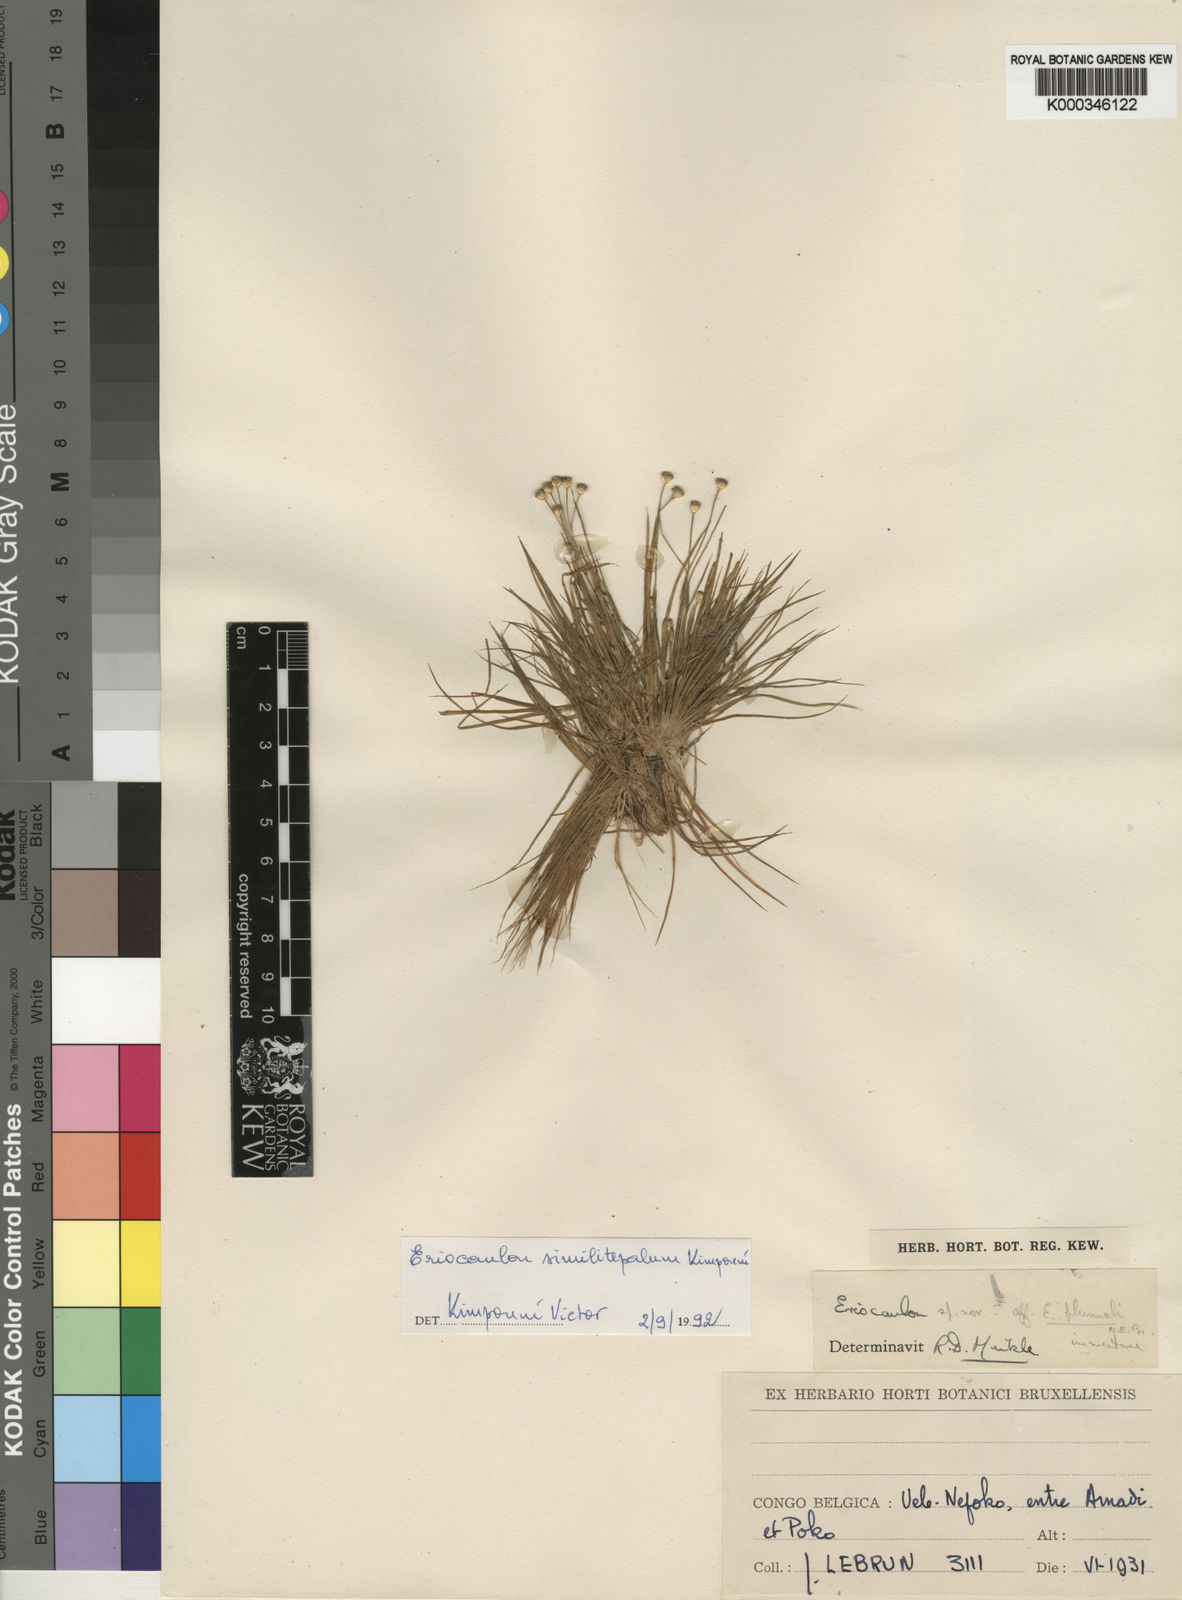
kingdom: Plantae
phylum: Tracheophyta
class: Liliopsida
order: Poales
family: Eriocaulaceae
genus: Eriocaulon
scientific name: Eriocaulon similitepalum
